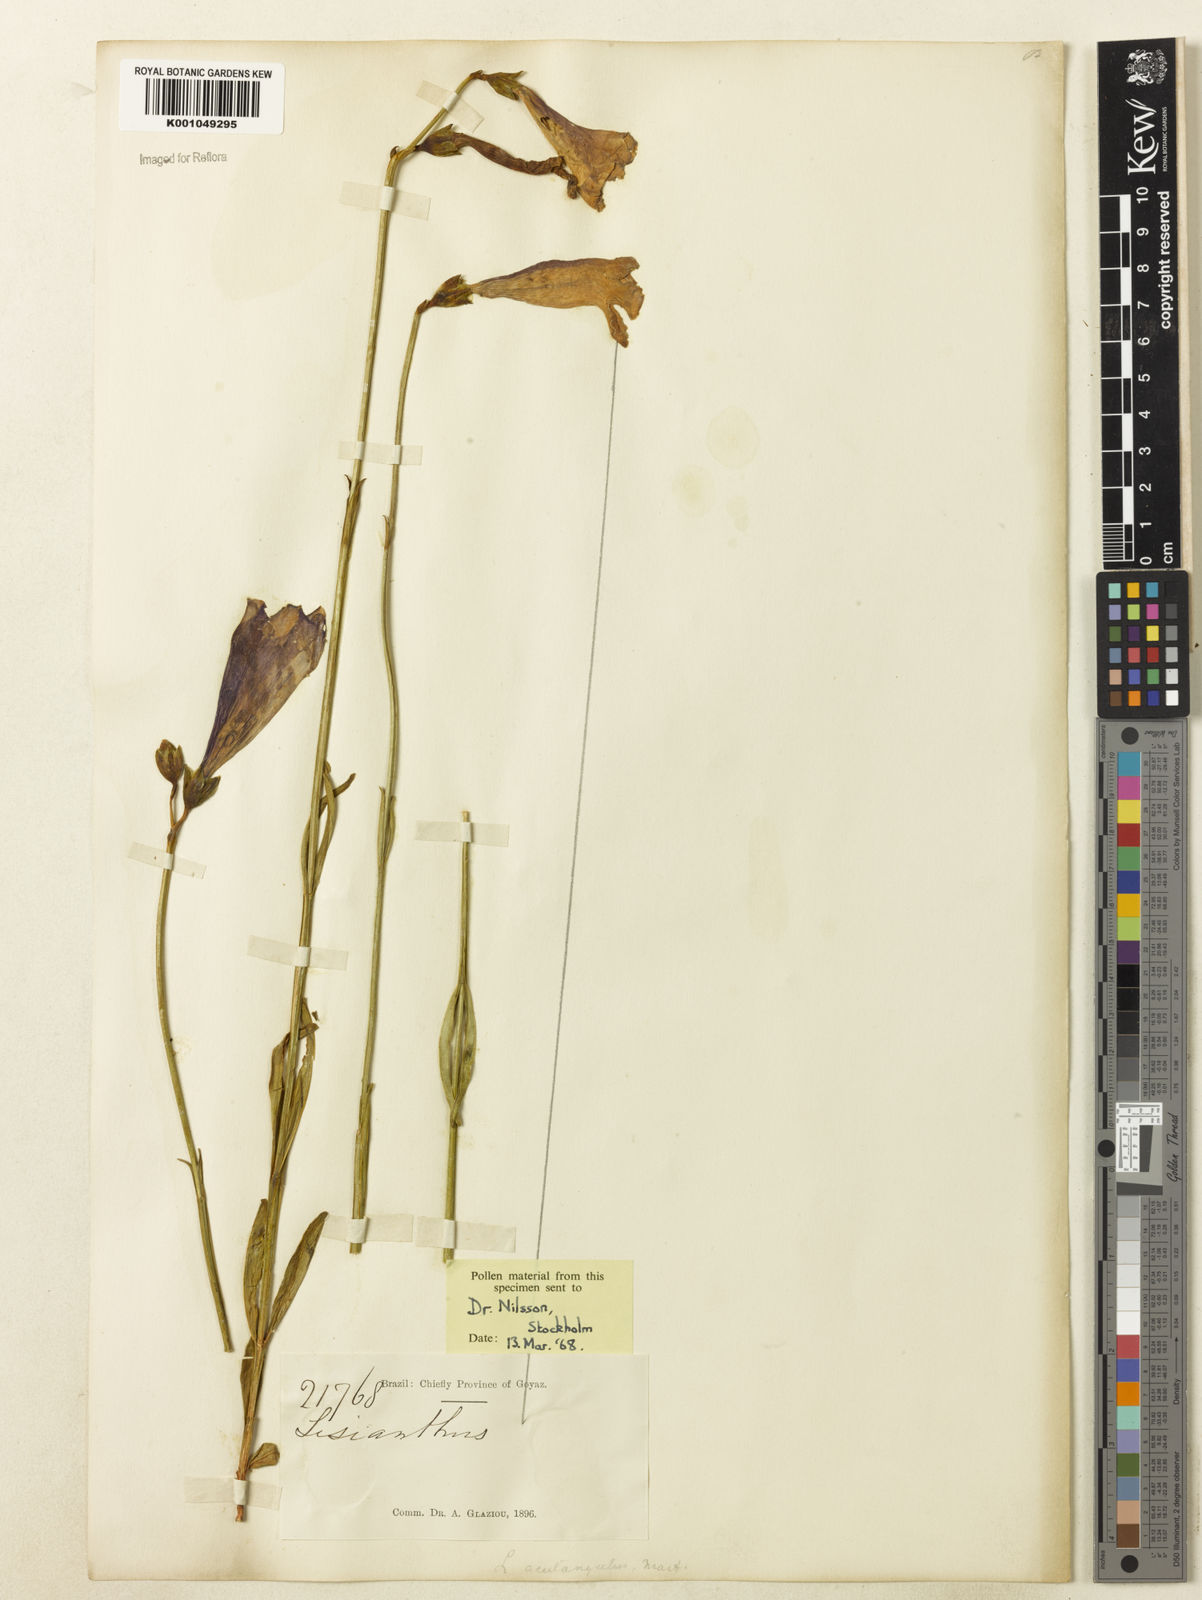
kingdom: Plantae
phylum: Tracheophyta
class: Magnoliopsida
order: Gentianales
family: Gentianaceae
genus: Lisianthius
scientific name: Lisianthius tetragonoalatus
